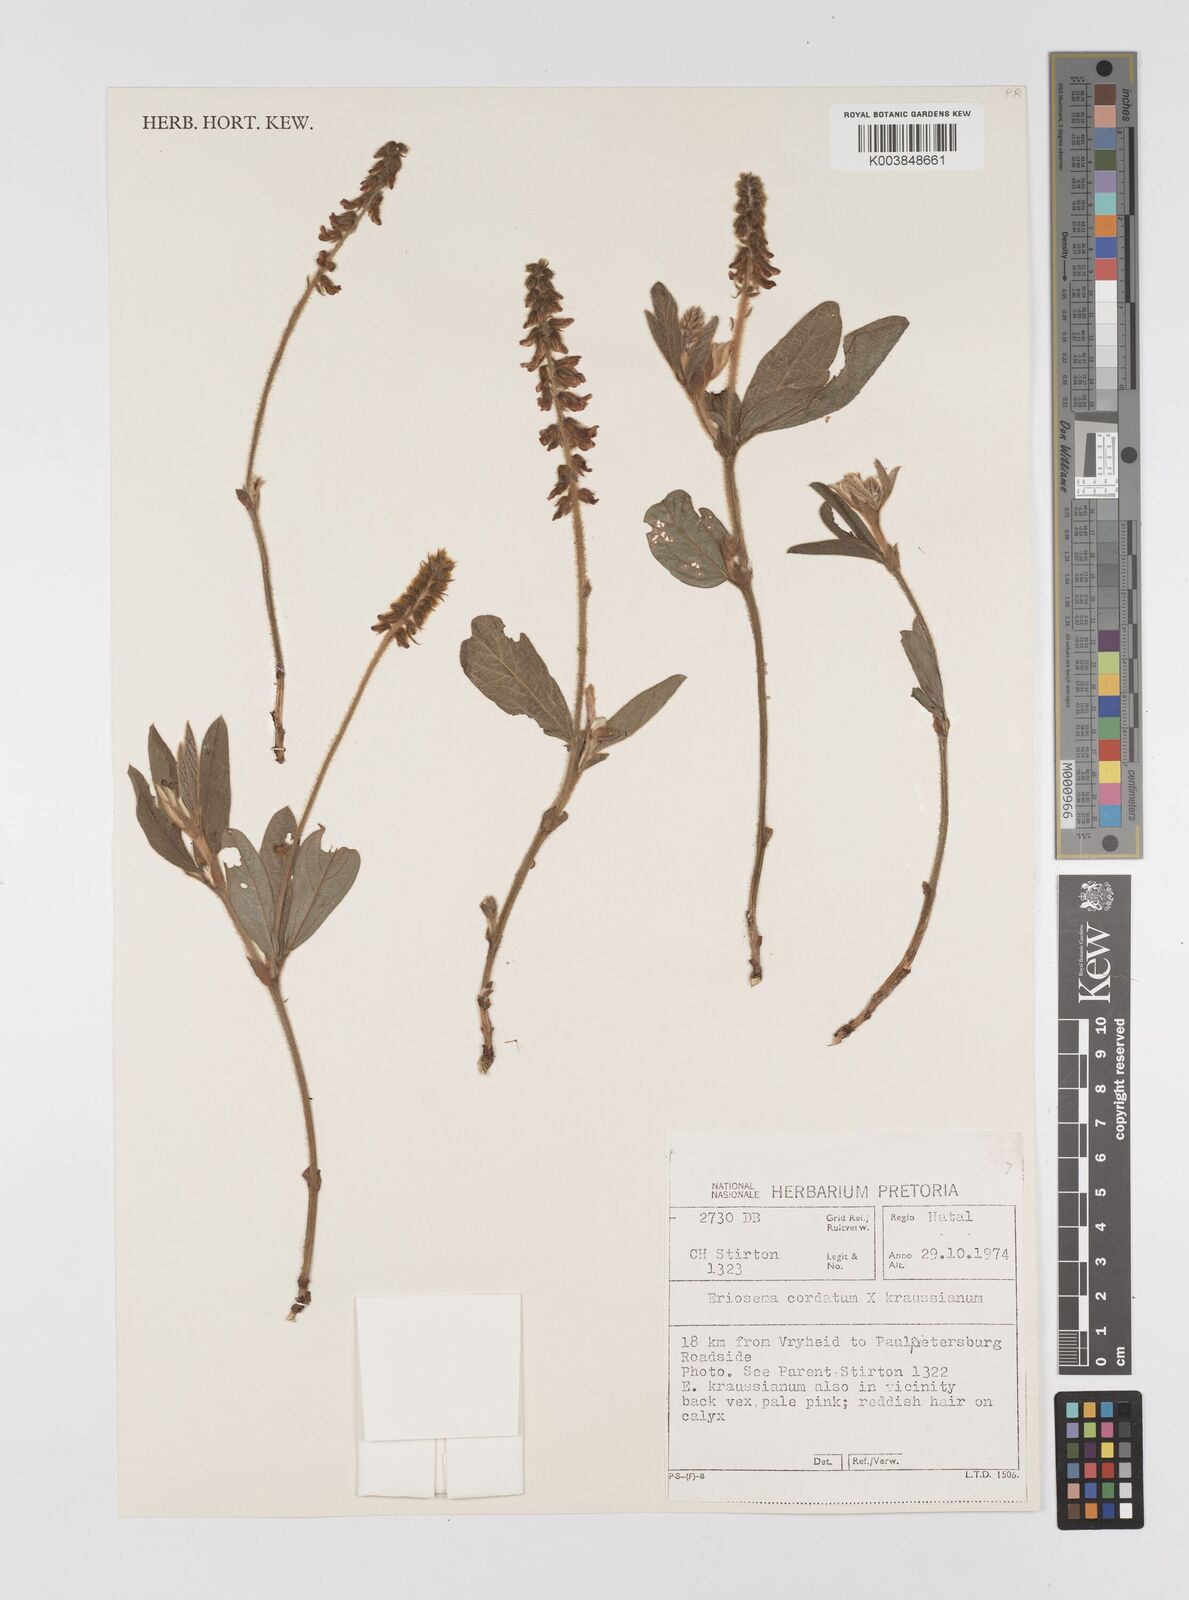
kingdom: Plantae
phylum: Tracheophyta
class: Magnoliopsida
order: Fabales
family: Fabaceae
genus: Eriosema
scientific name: Eriosema cordatum
